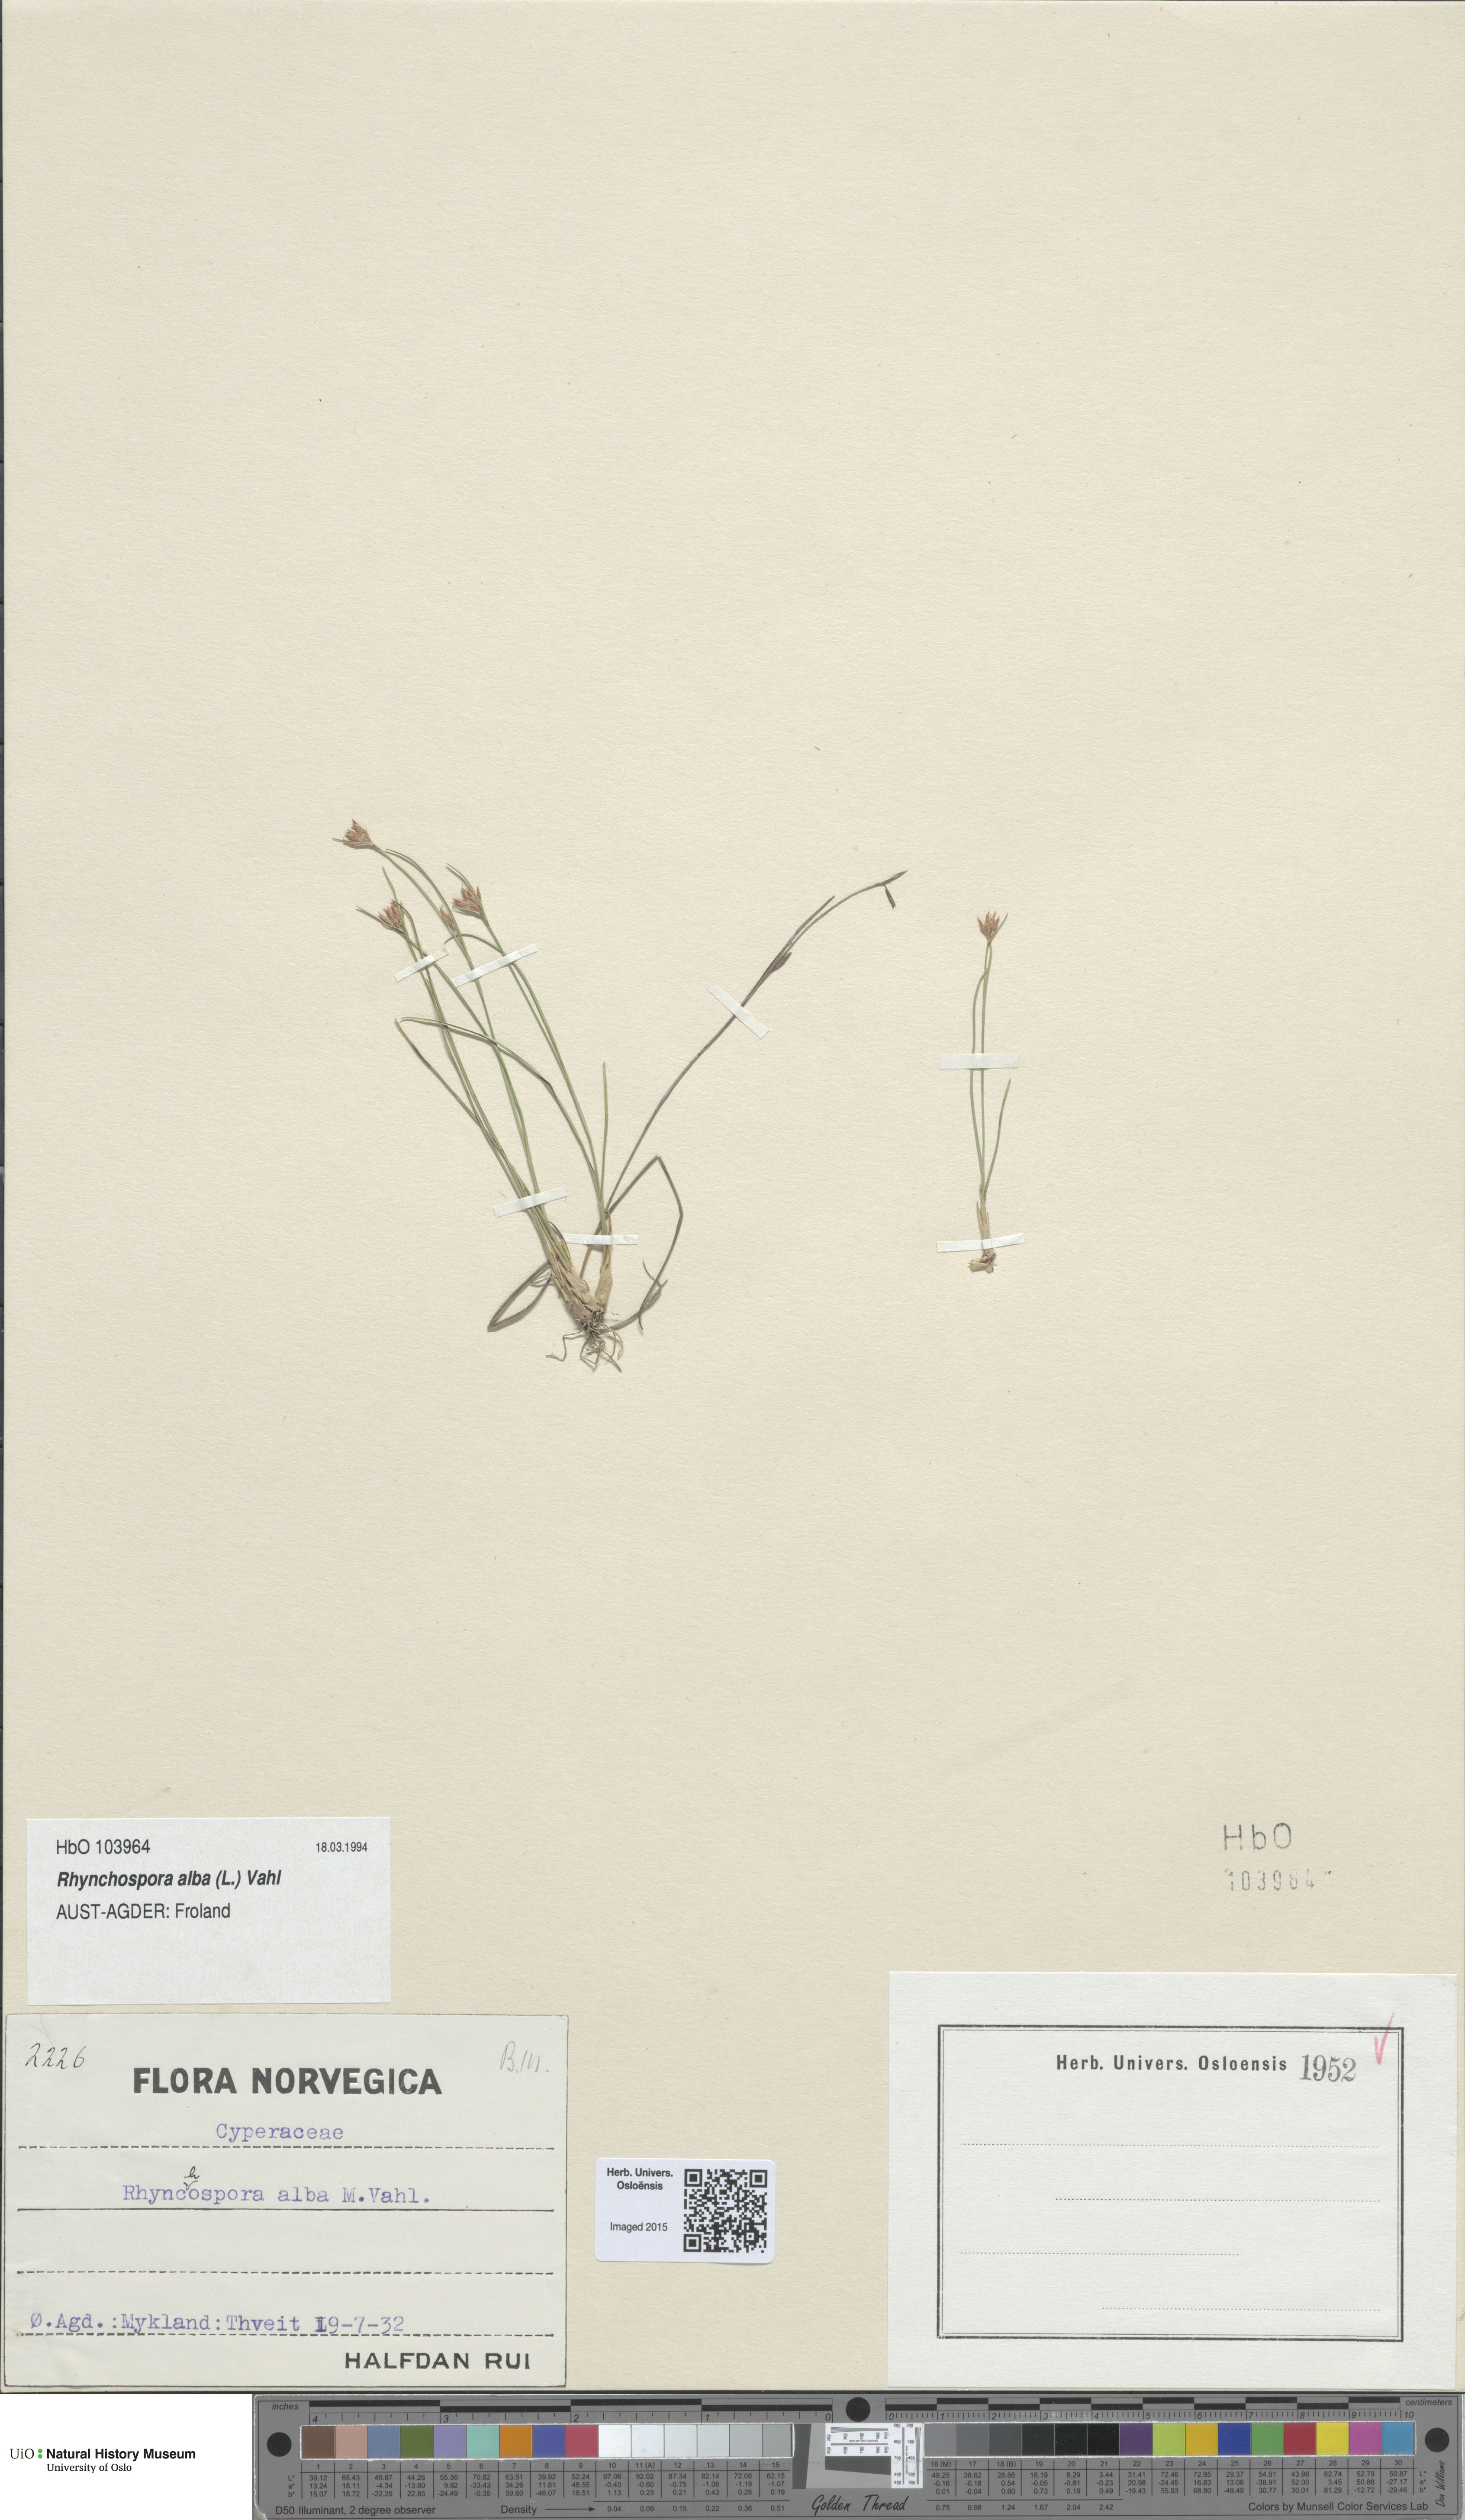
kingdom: Plantae
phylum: Tracheophyta
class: Liliopsida
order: Poales
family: Cyperaceae
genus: Rhynchospora
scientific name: Rhynchospora alba
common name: White beak-sedge
